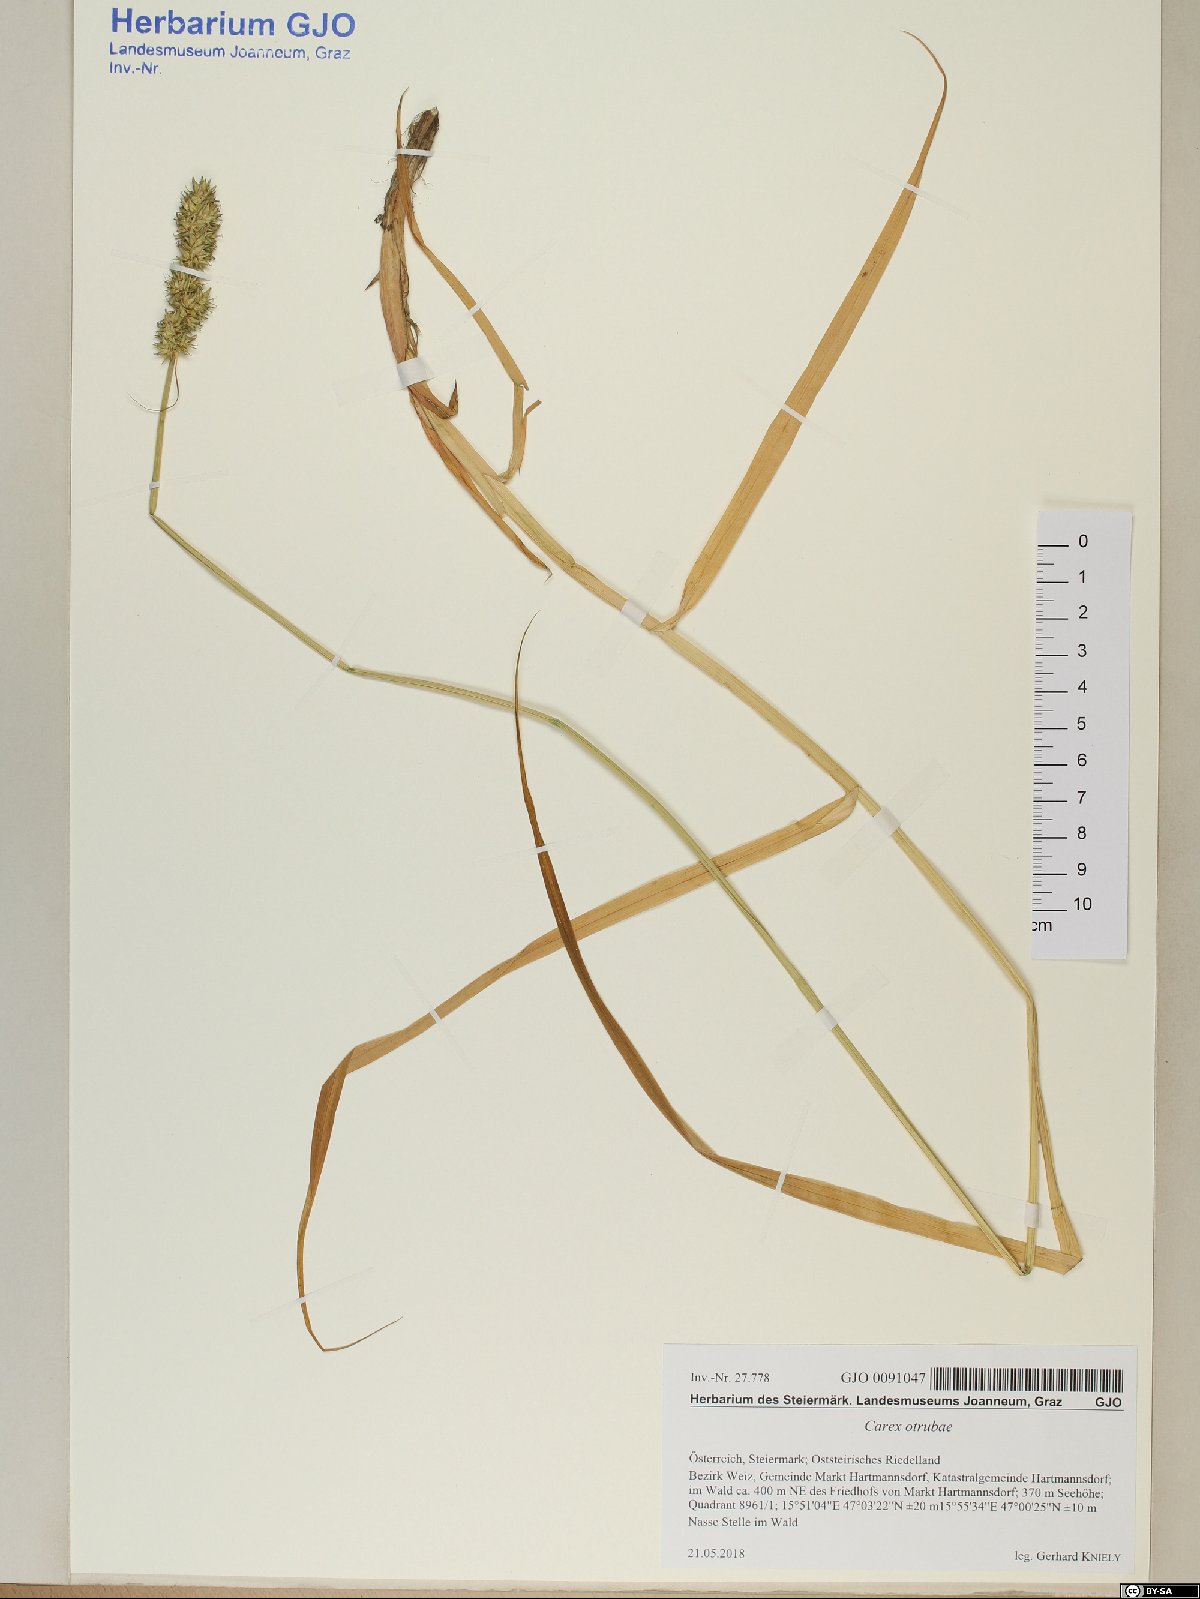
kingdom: Plantae
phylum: Tracheophyta
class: Liliopsida
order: Poales
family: Cyperaceae
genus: Carex
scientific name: Carex otrubae
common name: False fox-sedge
